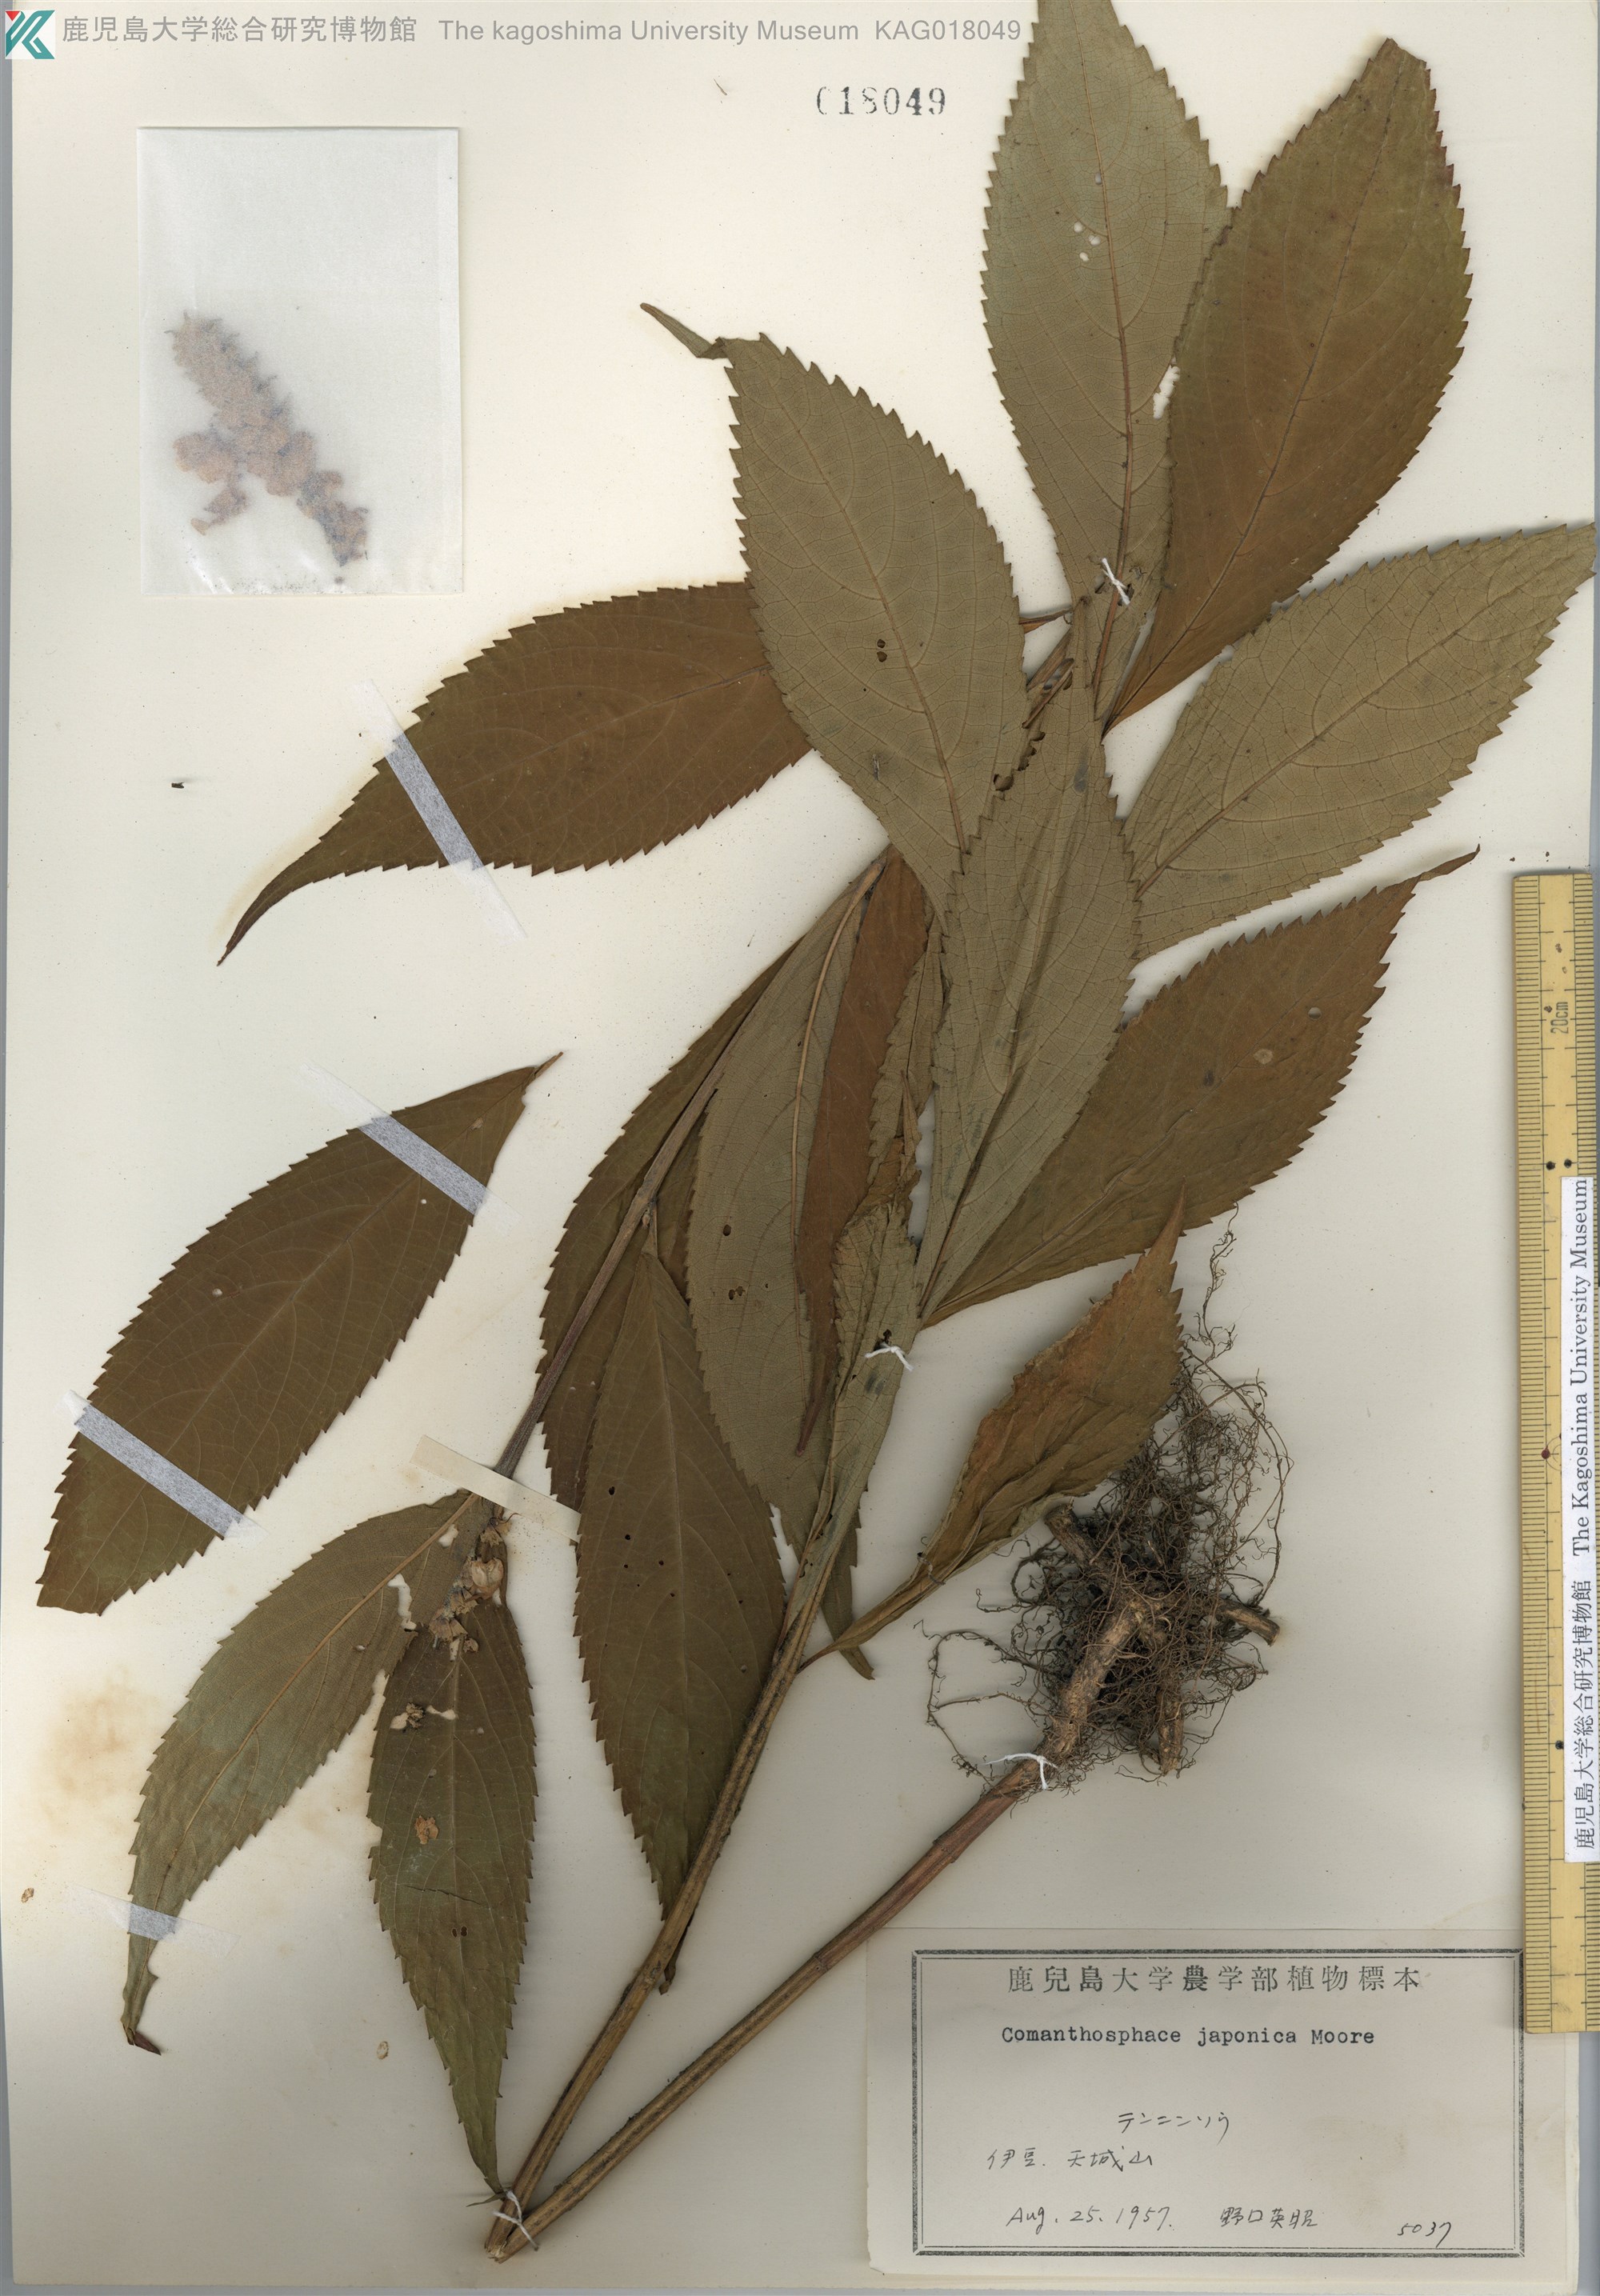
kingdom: Plantae
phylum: Tracheophyta
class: Magnoliopsida
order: Lamiales
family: Lamiaceae
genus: Comanthosphace
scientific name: Comanthosphace japonica
